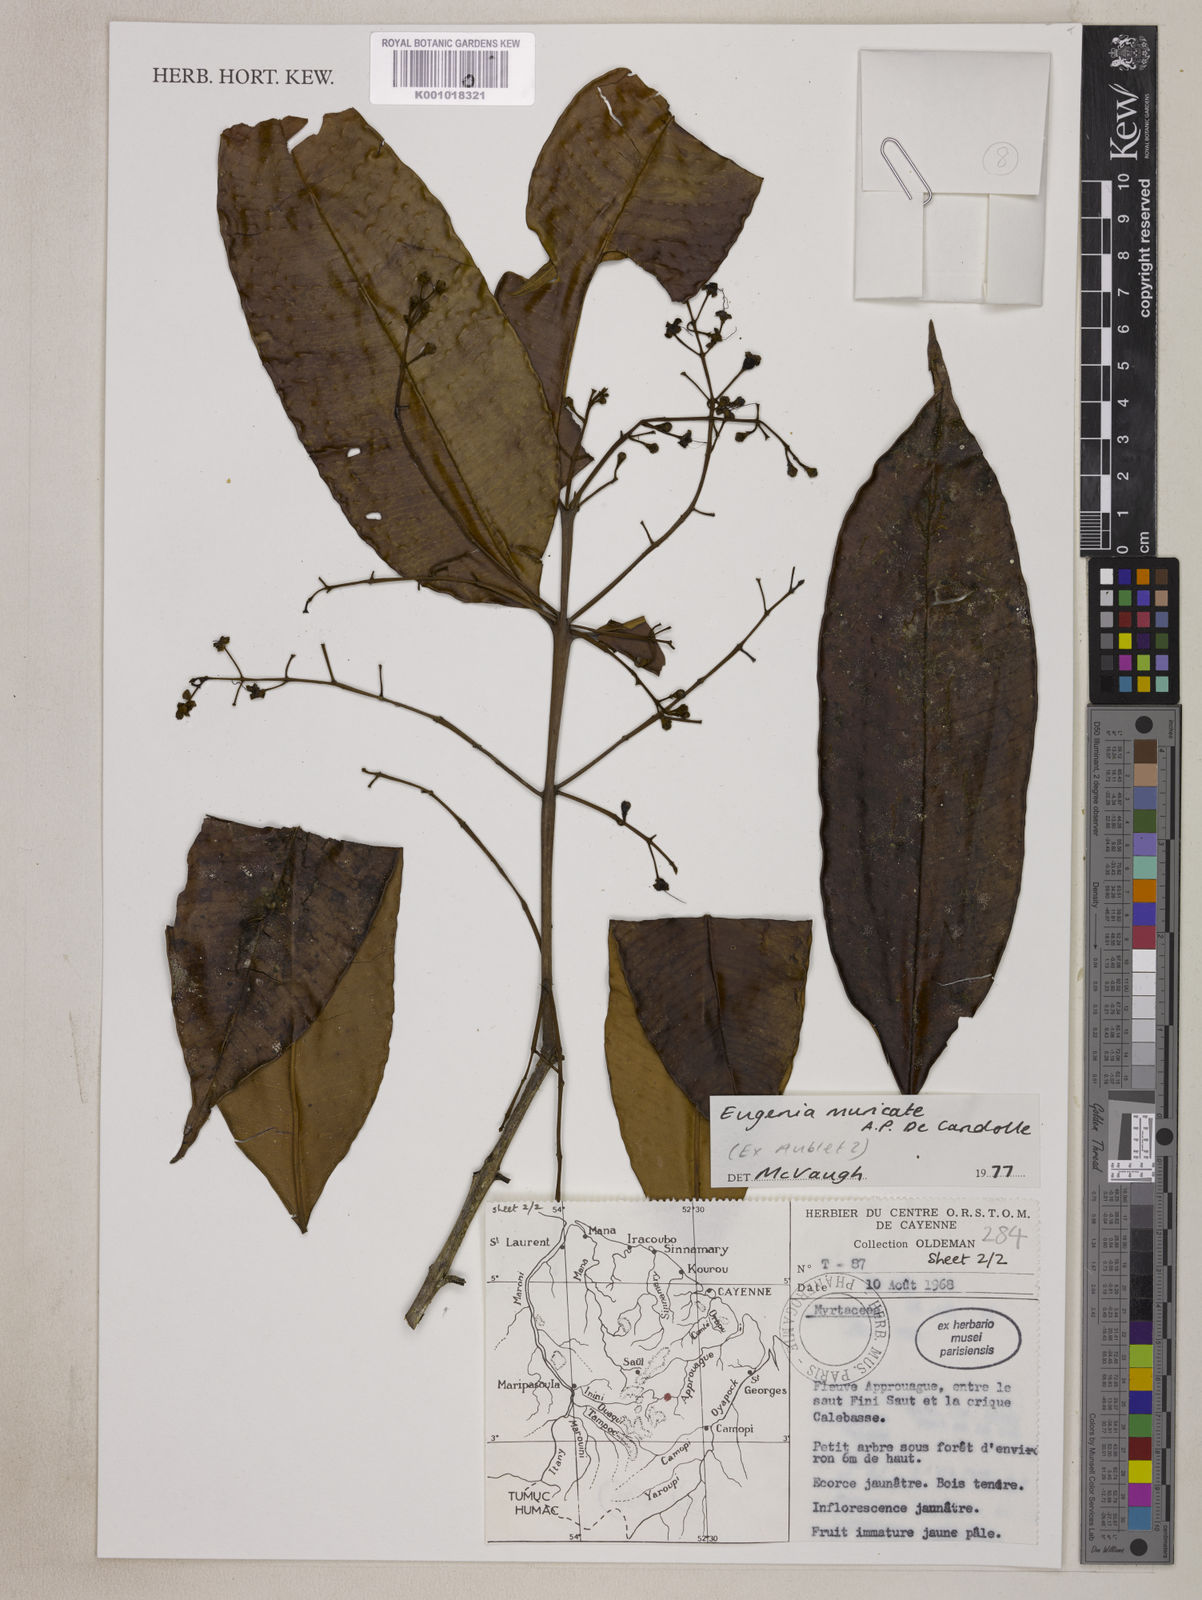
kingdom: Plantae
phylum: Tracheophyta
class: Magnoliopsida
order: Myrtales
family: Myrtaceae
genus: Eugenia
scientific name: Eugenia muricata
